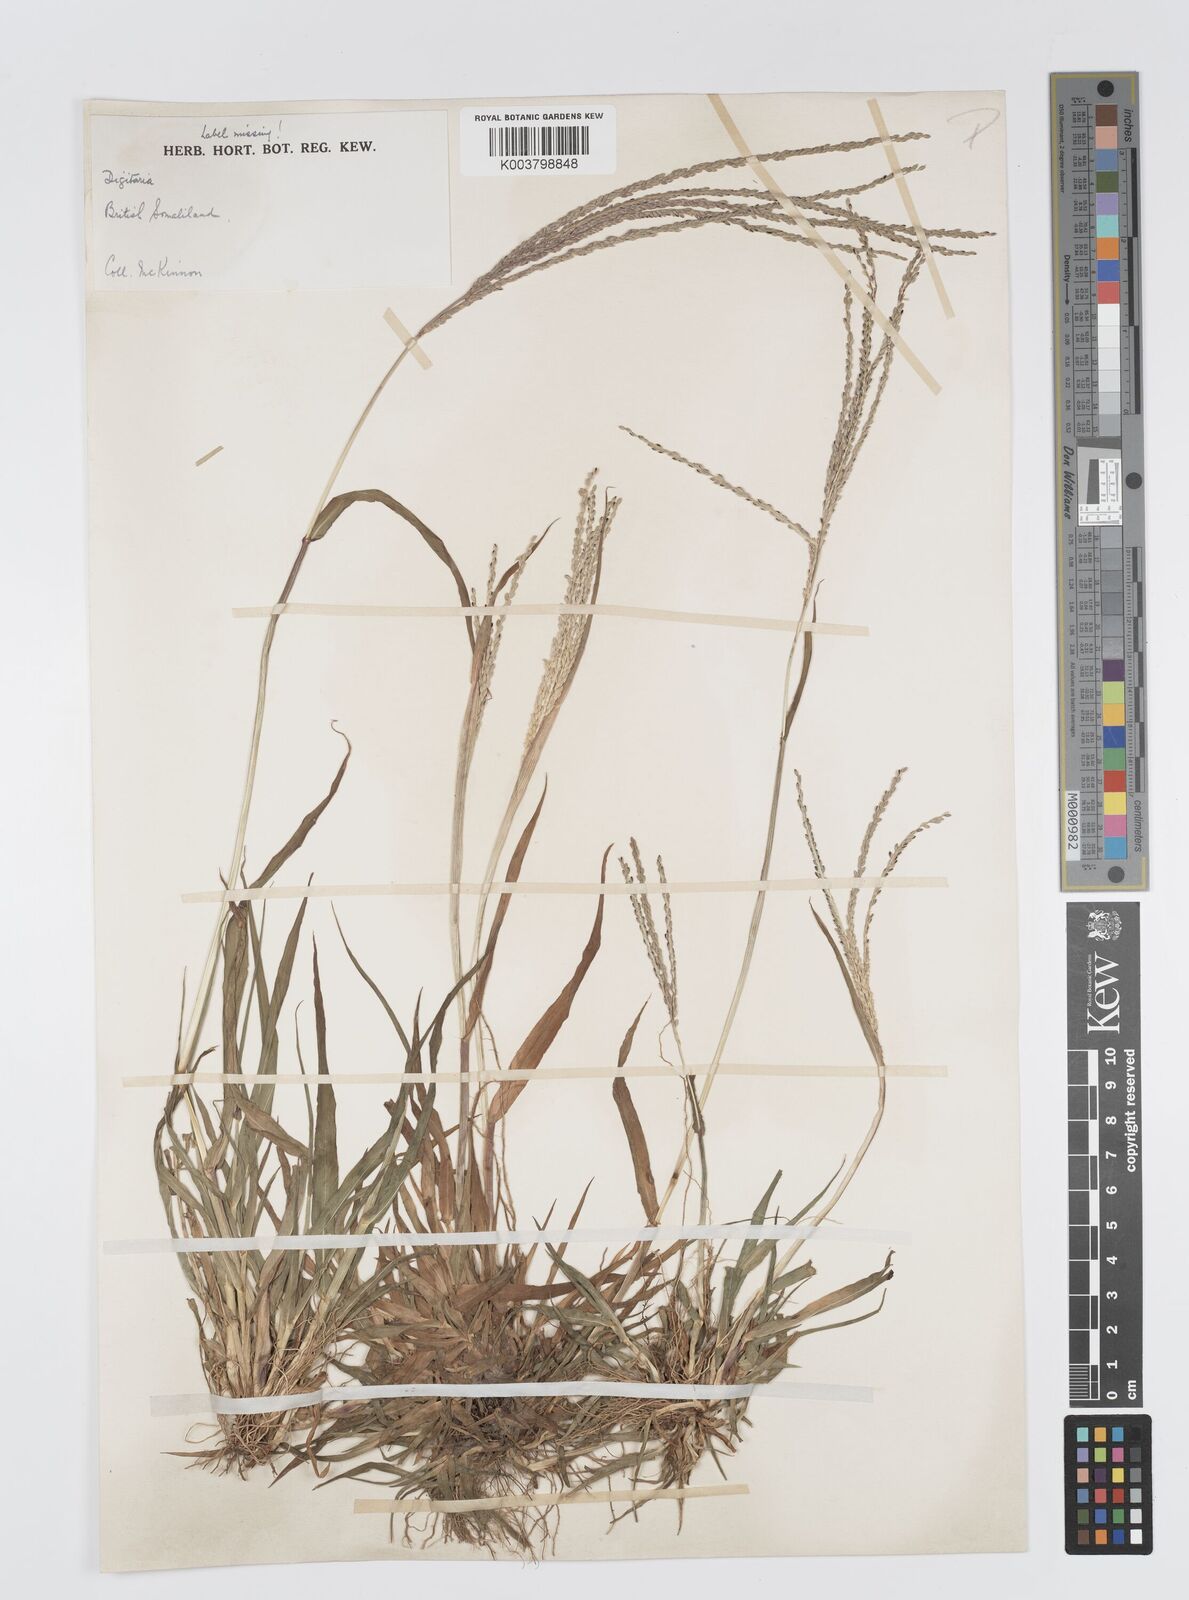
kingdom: Plantae
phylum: Tracheophyta
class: Liliopsida
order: Poales
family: Poaceae
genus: Digitaria
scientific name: Digitaria ternata
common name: Blackseed crabgrass
